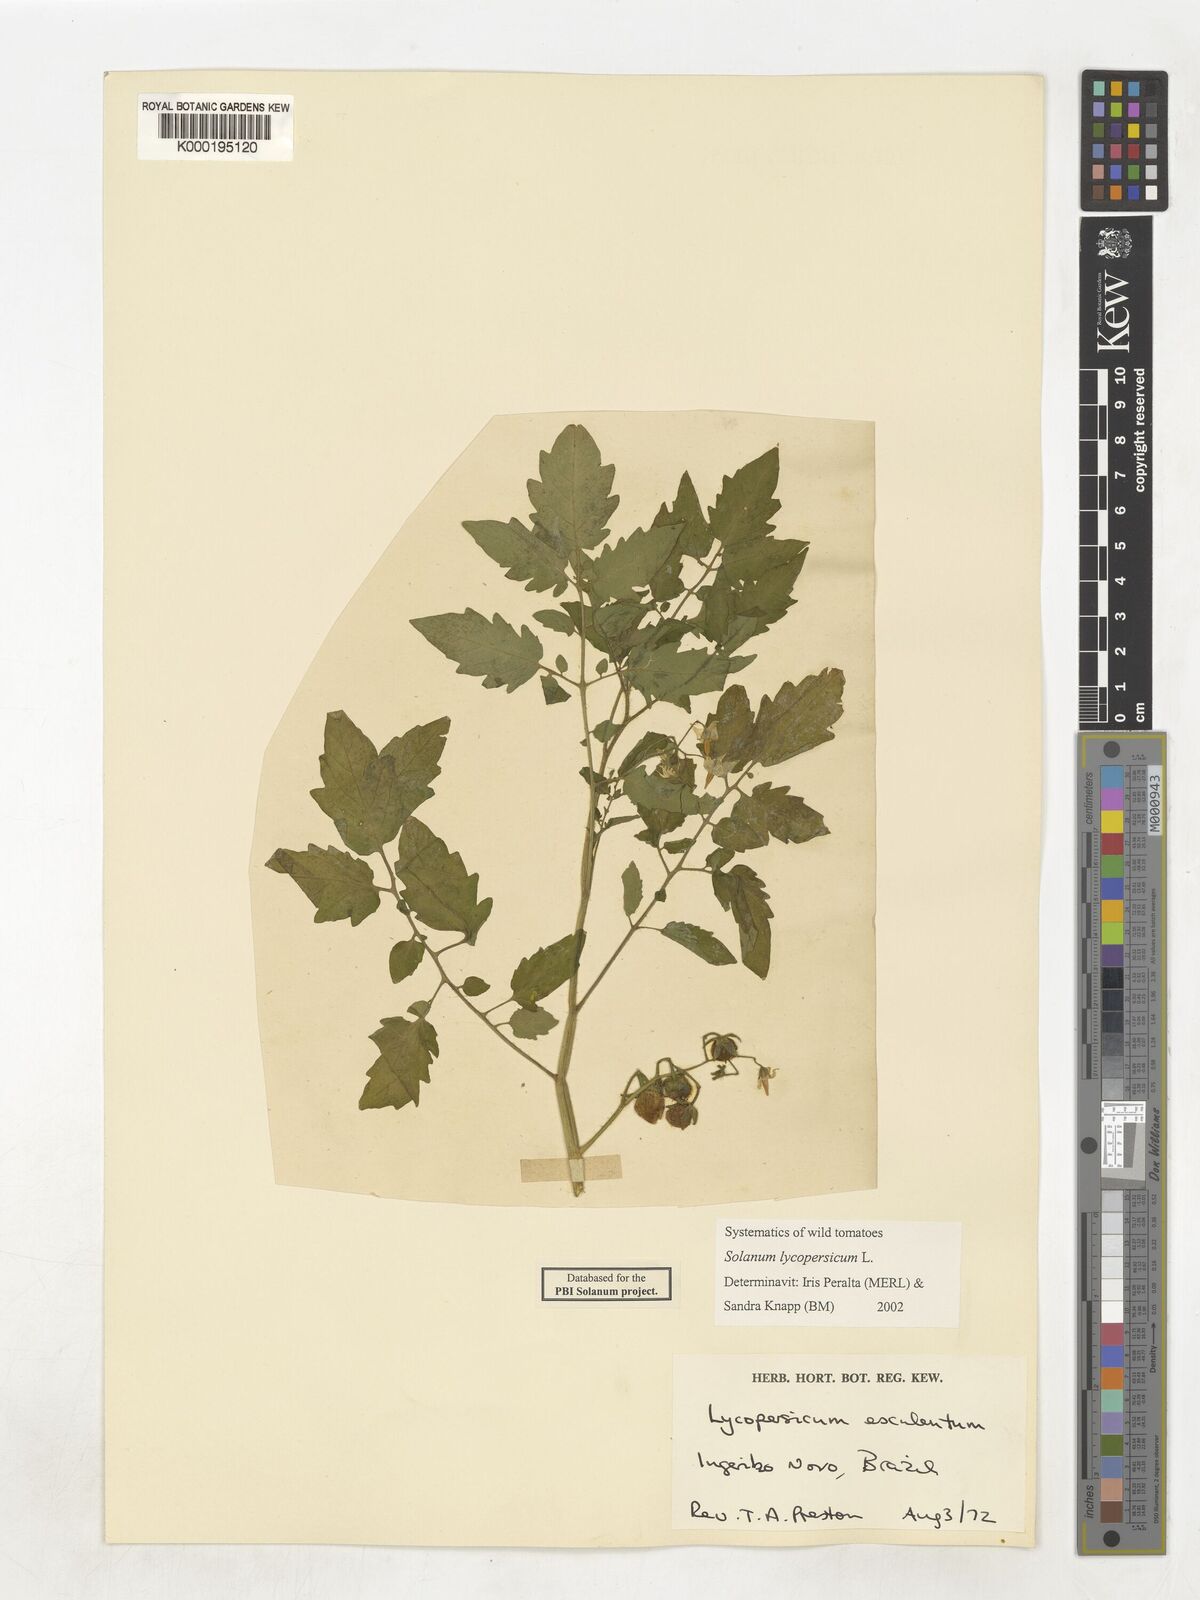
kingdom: Plantae
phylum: Tracheophyta
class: Magnoliopsida
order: Solanales
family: Solanaceae
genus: Solanum
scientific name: Solanum lycopersicum
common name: Garden tomato
